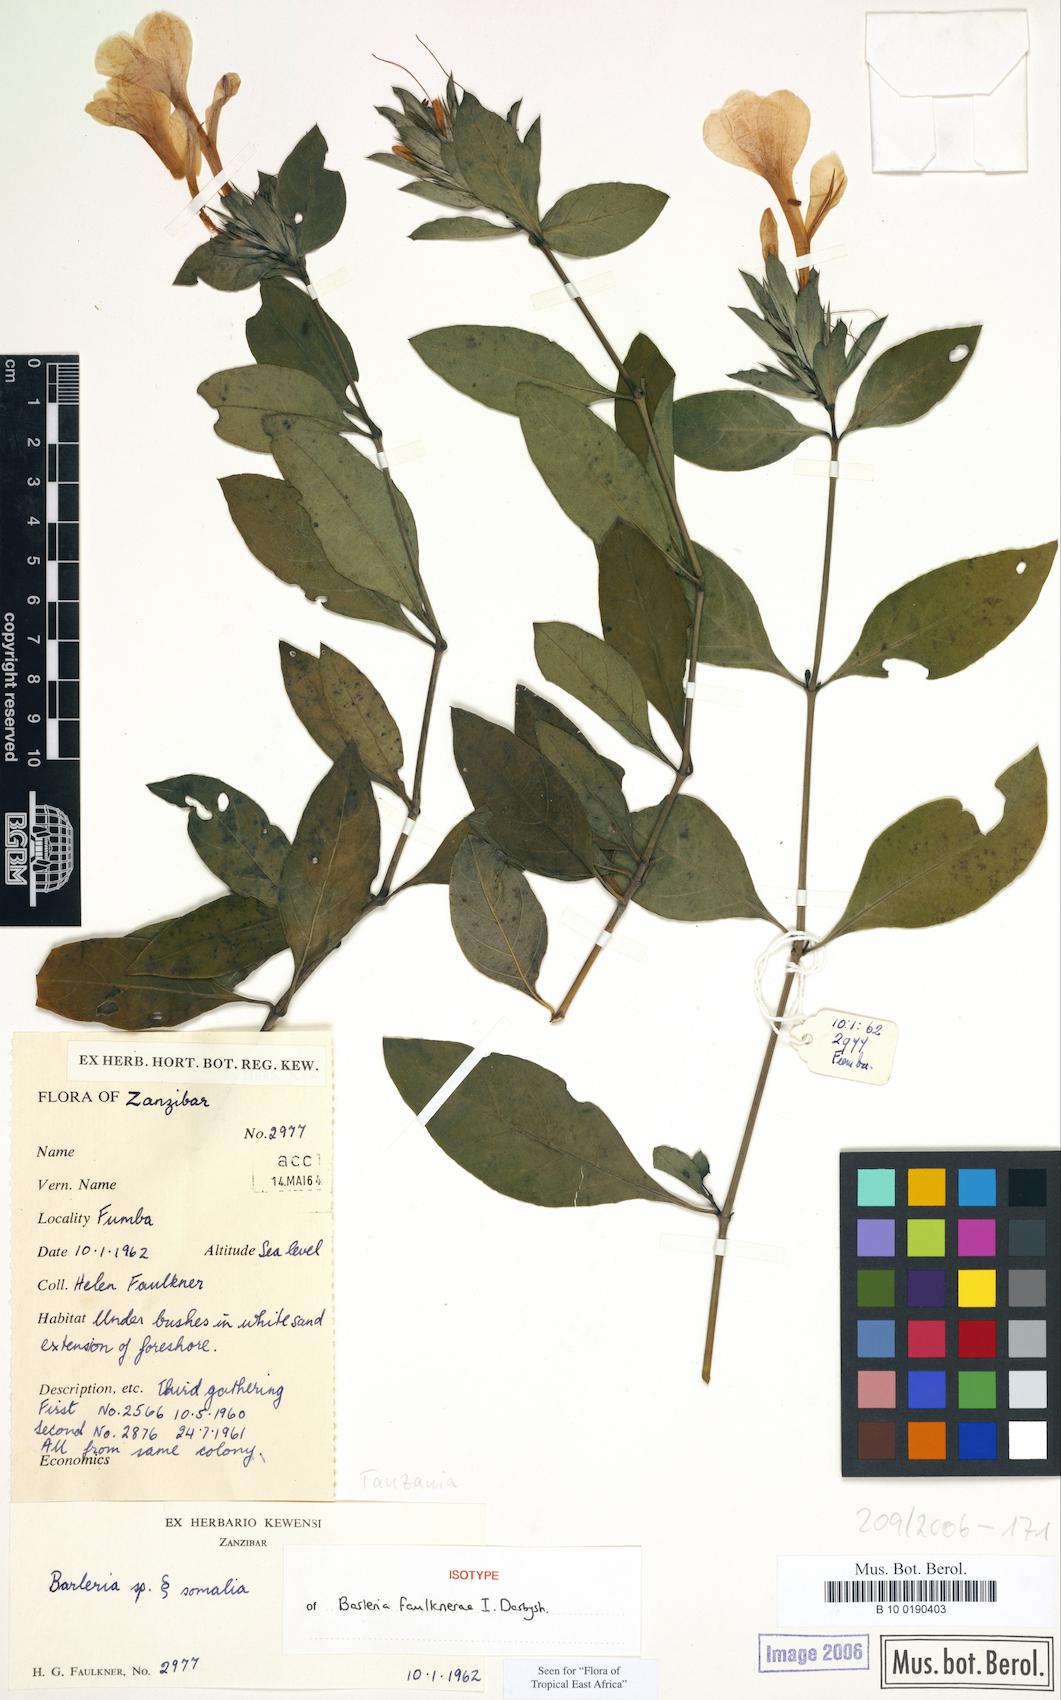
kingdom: Plantae
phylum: Tracheophyta
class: Magnoliopsida
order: Lamiales
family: Acanthaceae
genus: Barleria
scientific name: Barleria faulknerae
